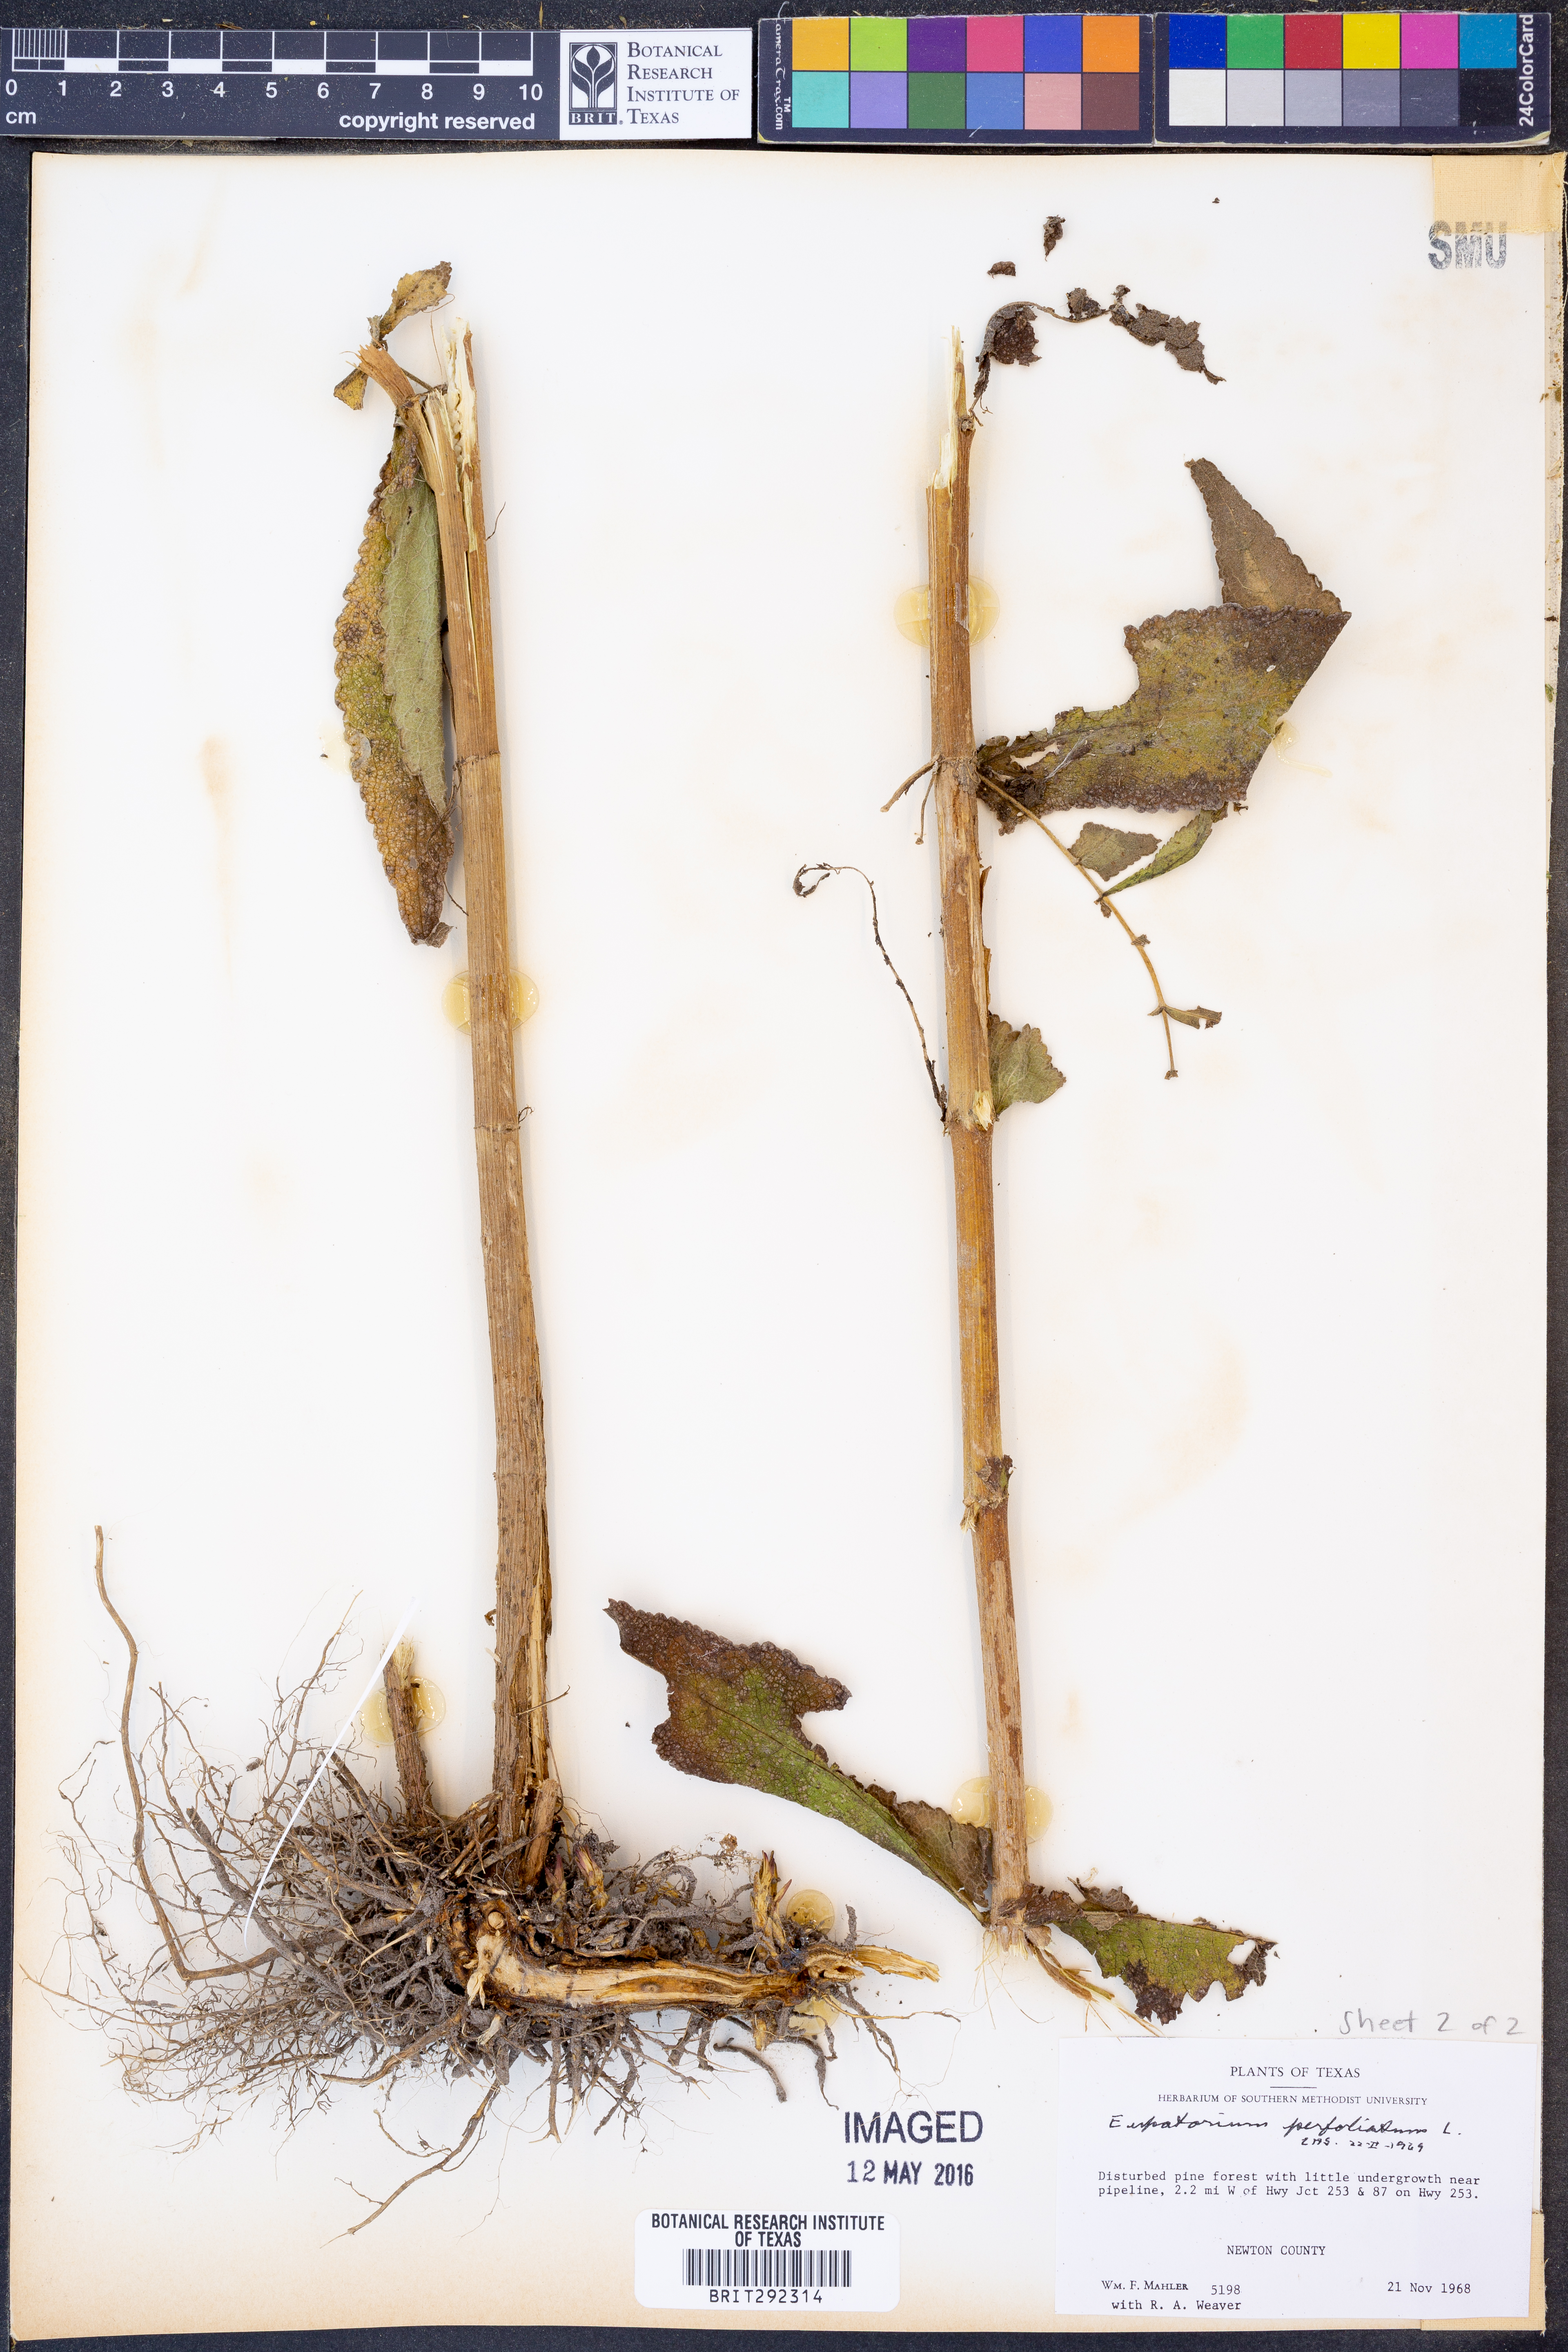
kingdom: Plantae
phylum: Tracheophyta
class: Magnoliopsida
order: Asterales
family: Asteraceae
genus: Eupatorium
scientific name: Eupatorium perfoliatum
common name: Boneset
